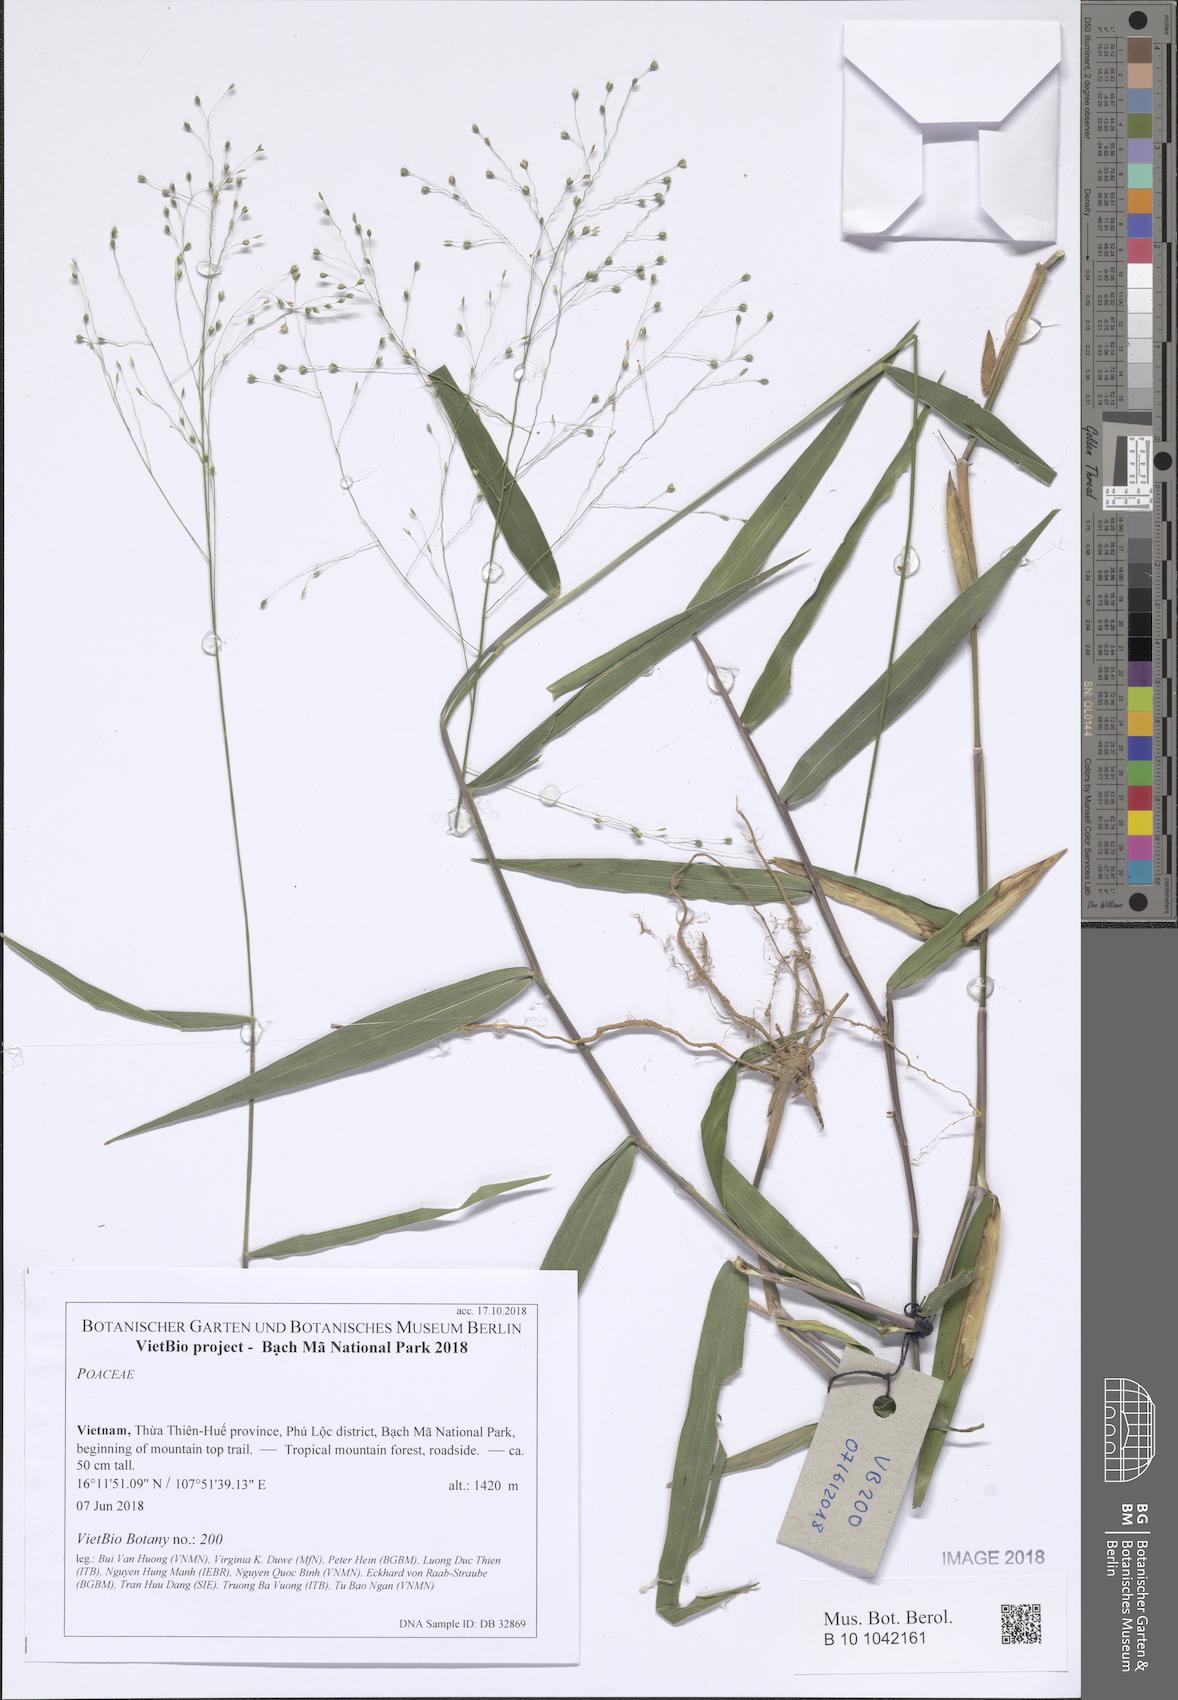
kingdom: Plantae
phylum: Tracheophyta
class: Liliopsida
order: Poales
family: Poaceae
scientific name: Poaceae
